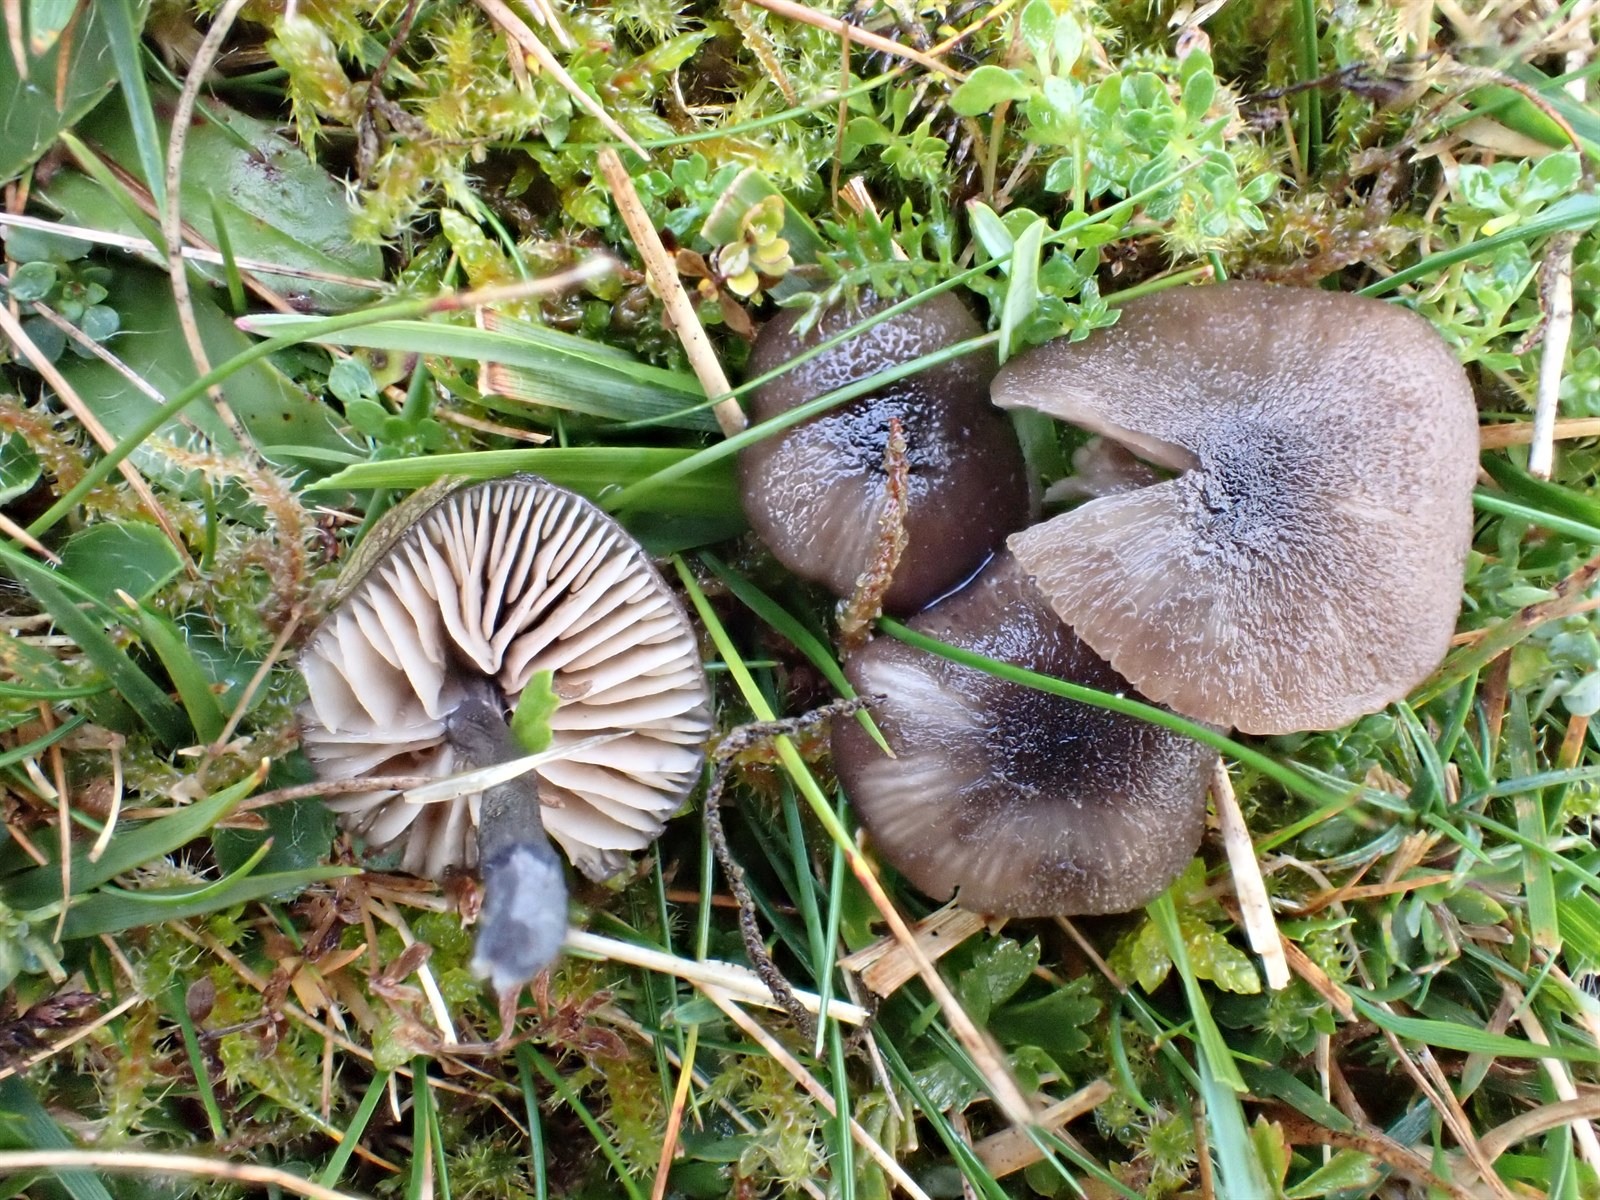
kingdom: Fungi
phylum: Basidiomycota
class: Agaricomycetes
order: Agaricales
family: Entolomataceae
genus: Entoloma
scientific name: Entoloma atrocoeruleum
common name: Navy pinkgill
